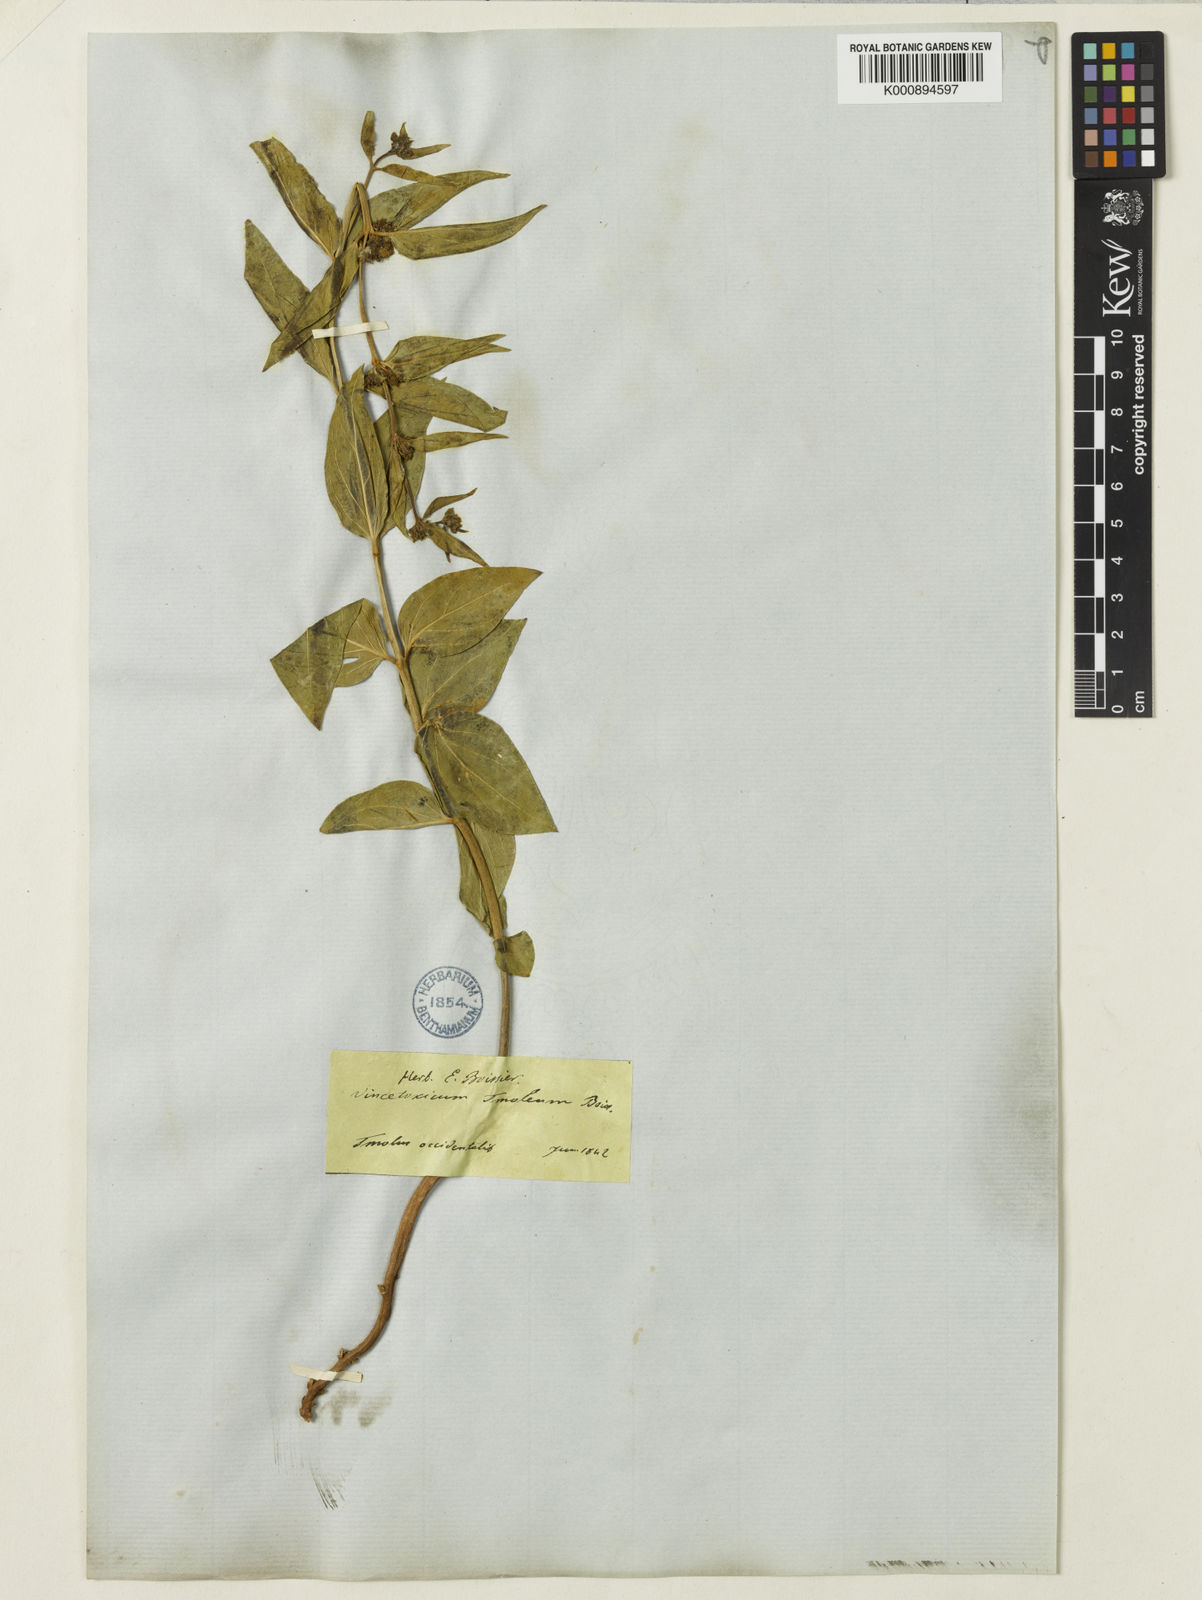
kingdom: Plantae
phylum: Tracheophyta
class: Magnoliopsida
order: Gentianales
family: Apocynaceae
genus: Vincetoxicum
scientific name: Vincetoxicum tmoleum
